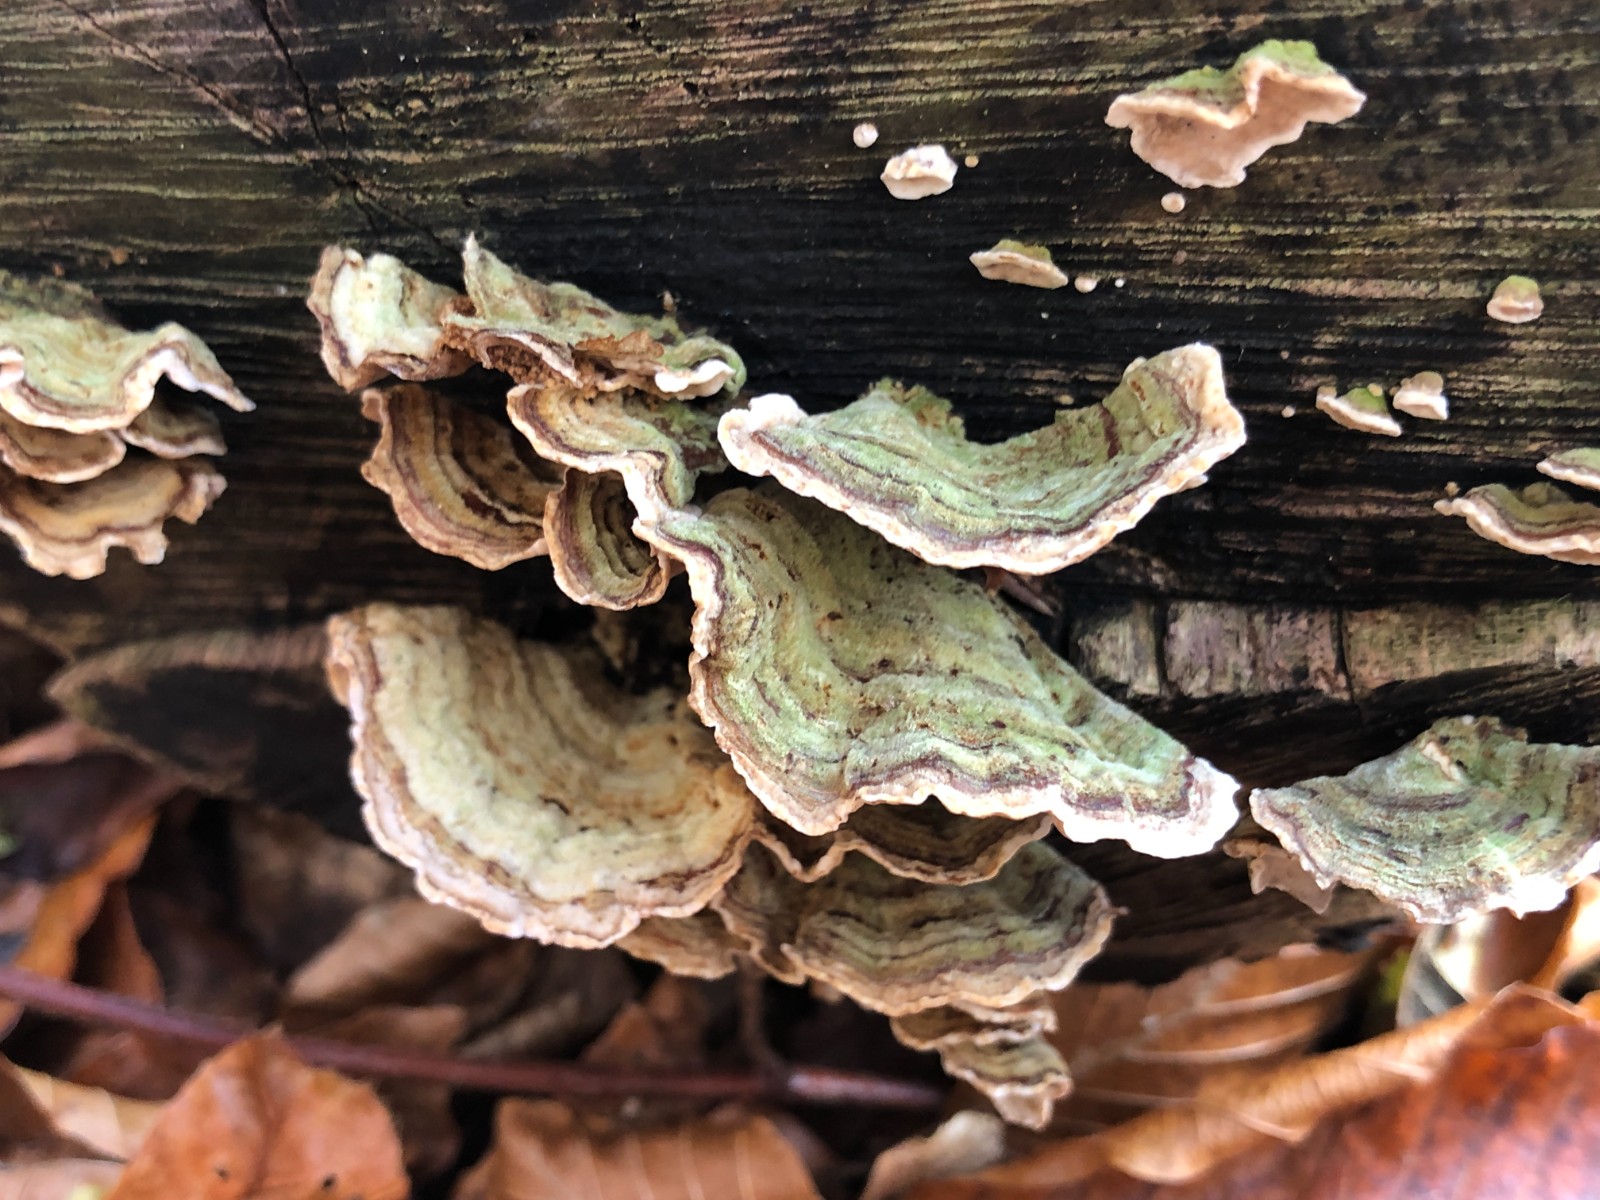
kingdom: Fungi
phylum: Basidiomycota
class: Agaricomycetes
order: Russulales
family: Stereaceae
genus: Stereum
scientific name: Stereum subtomentosum
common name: smuk lædersvamp
